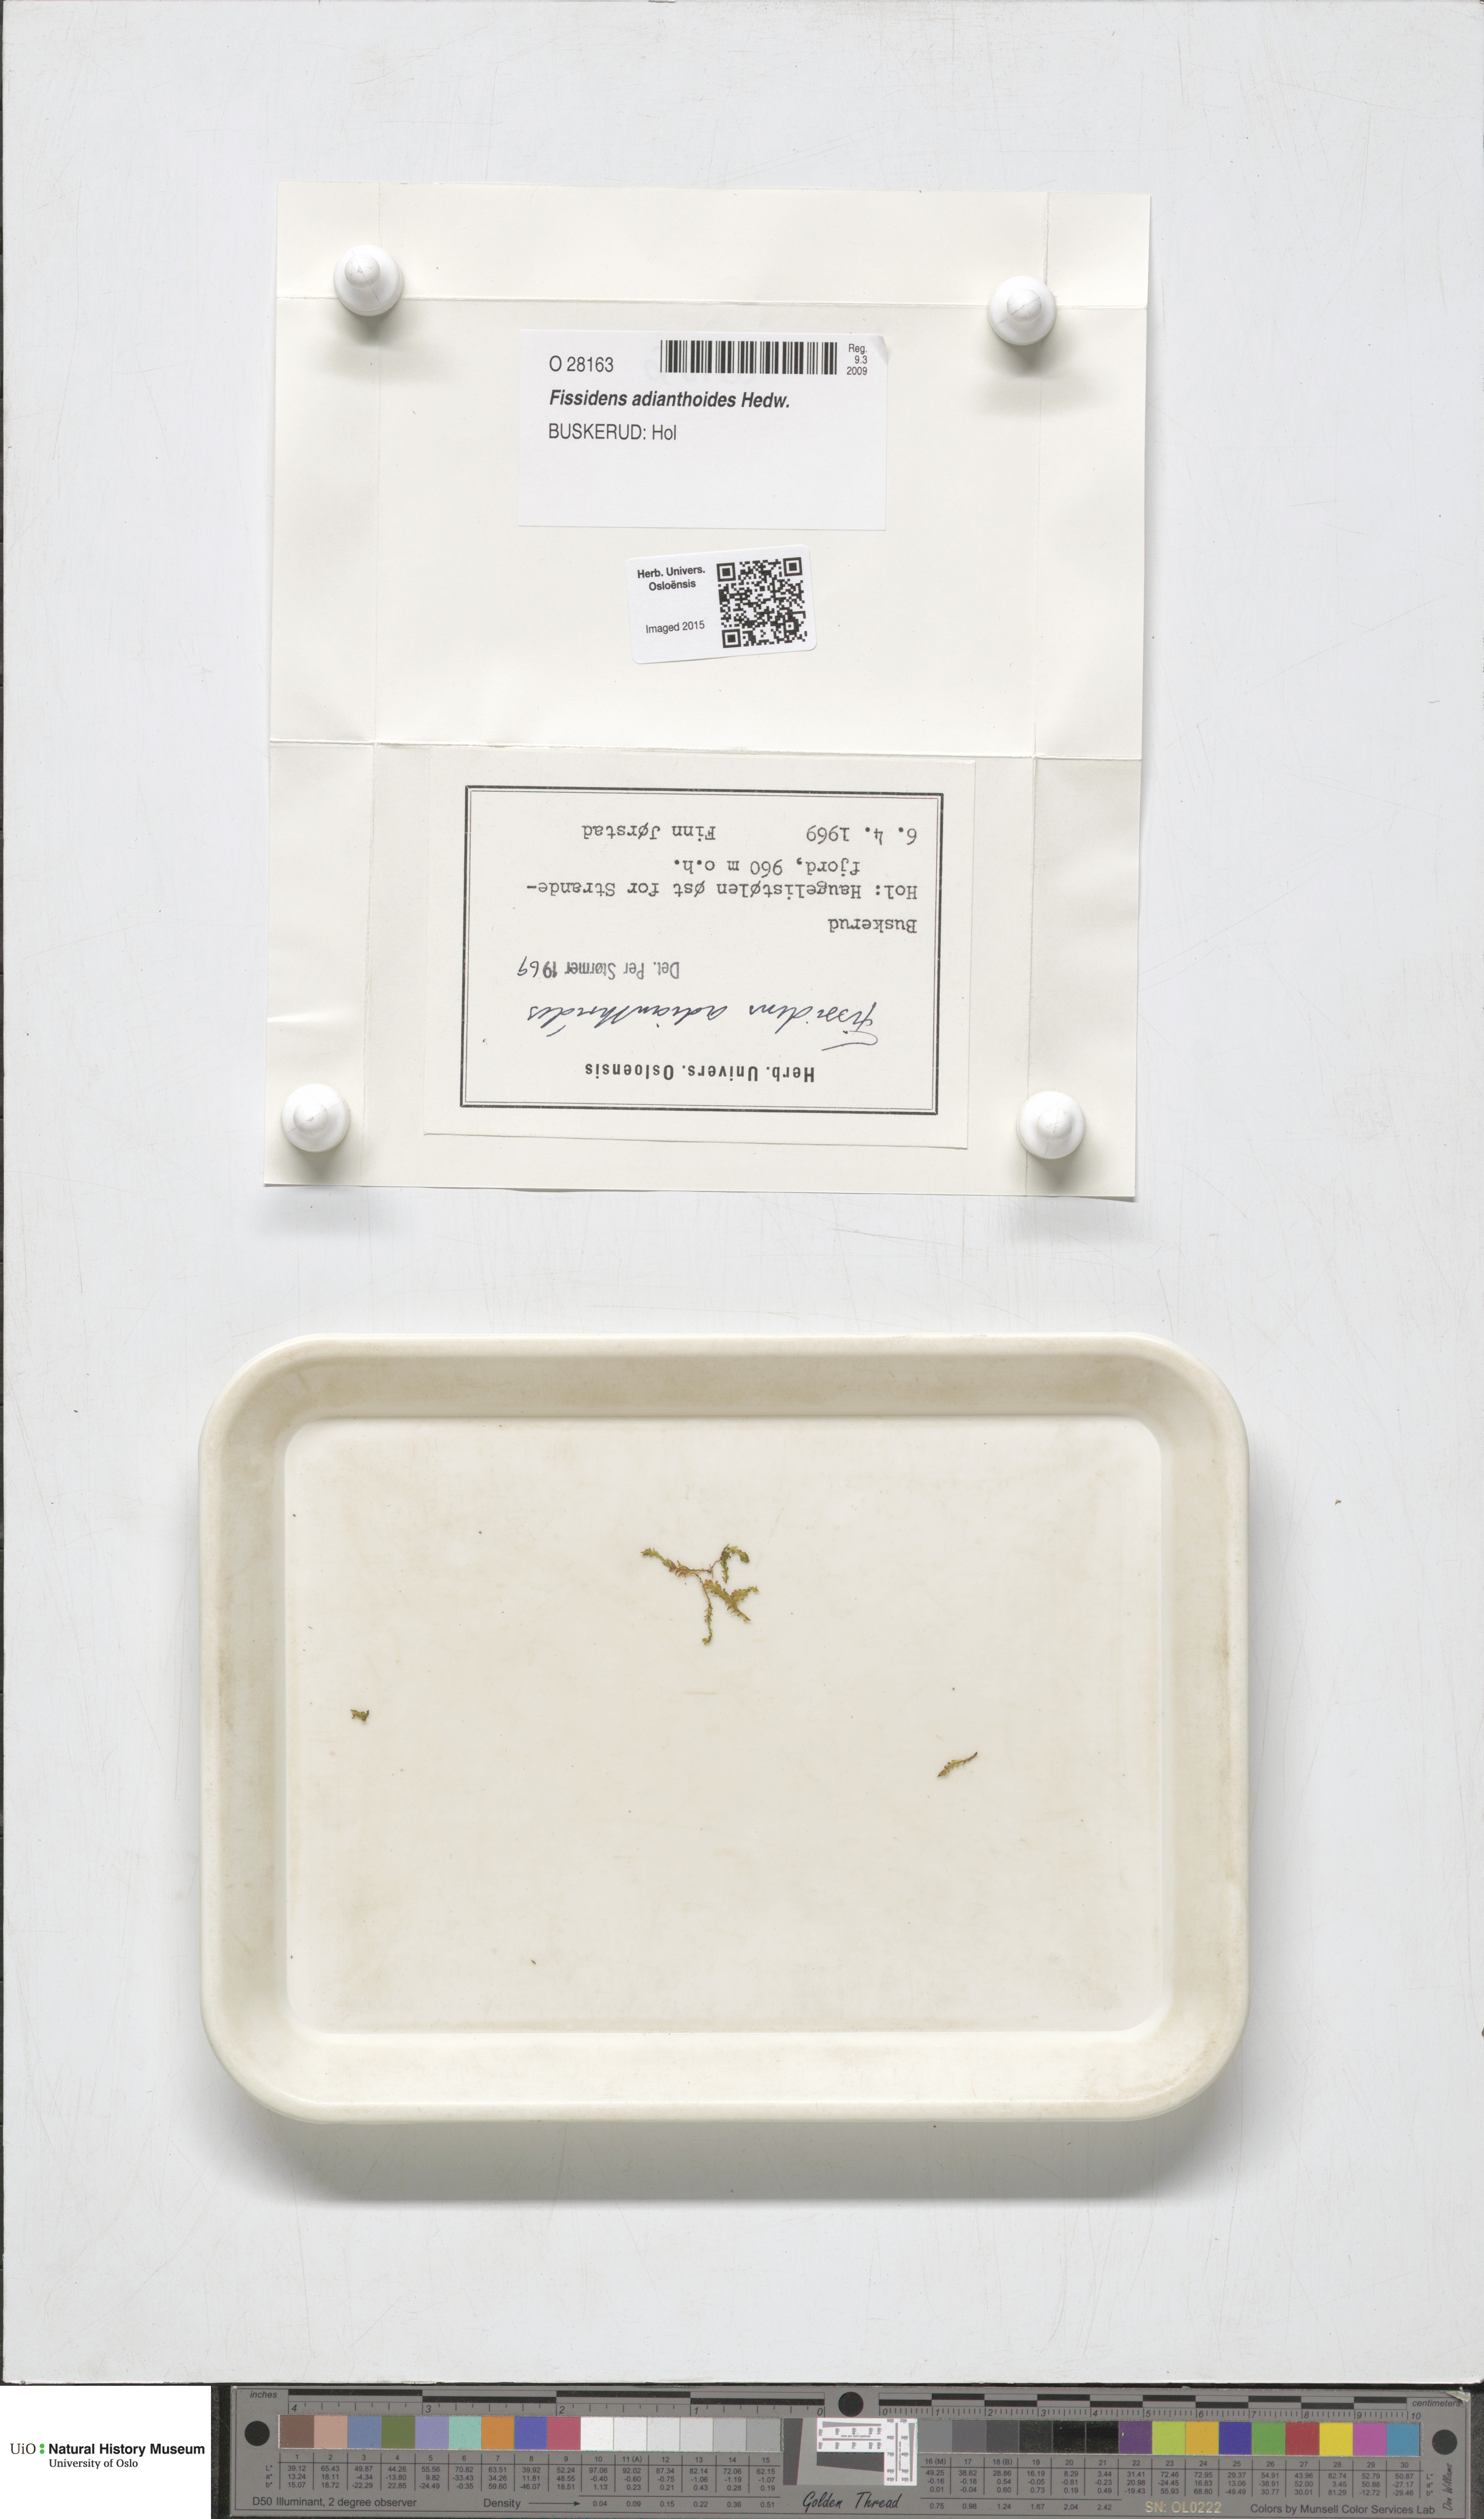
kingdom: Plantae
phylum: Bryophyta
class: Bryopsida
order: Dicranales
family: Fissidentaceae
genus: Fissidens
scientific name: Fissidens adianthoides
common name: Maidenhair pocket moss
